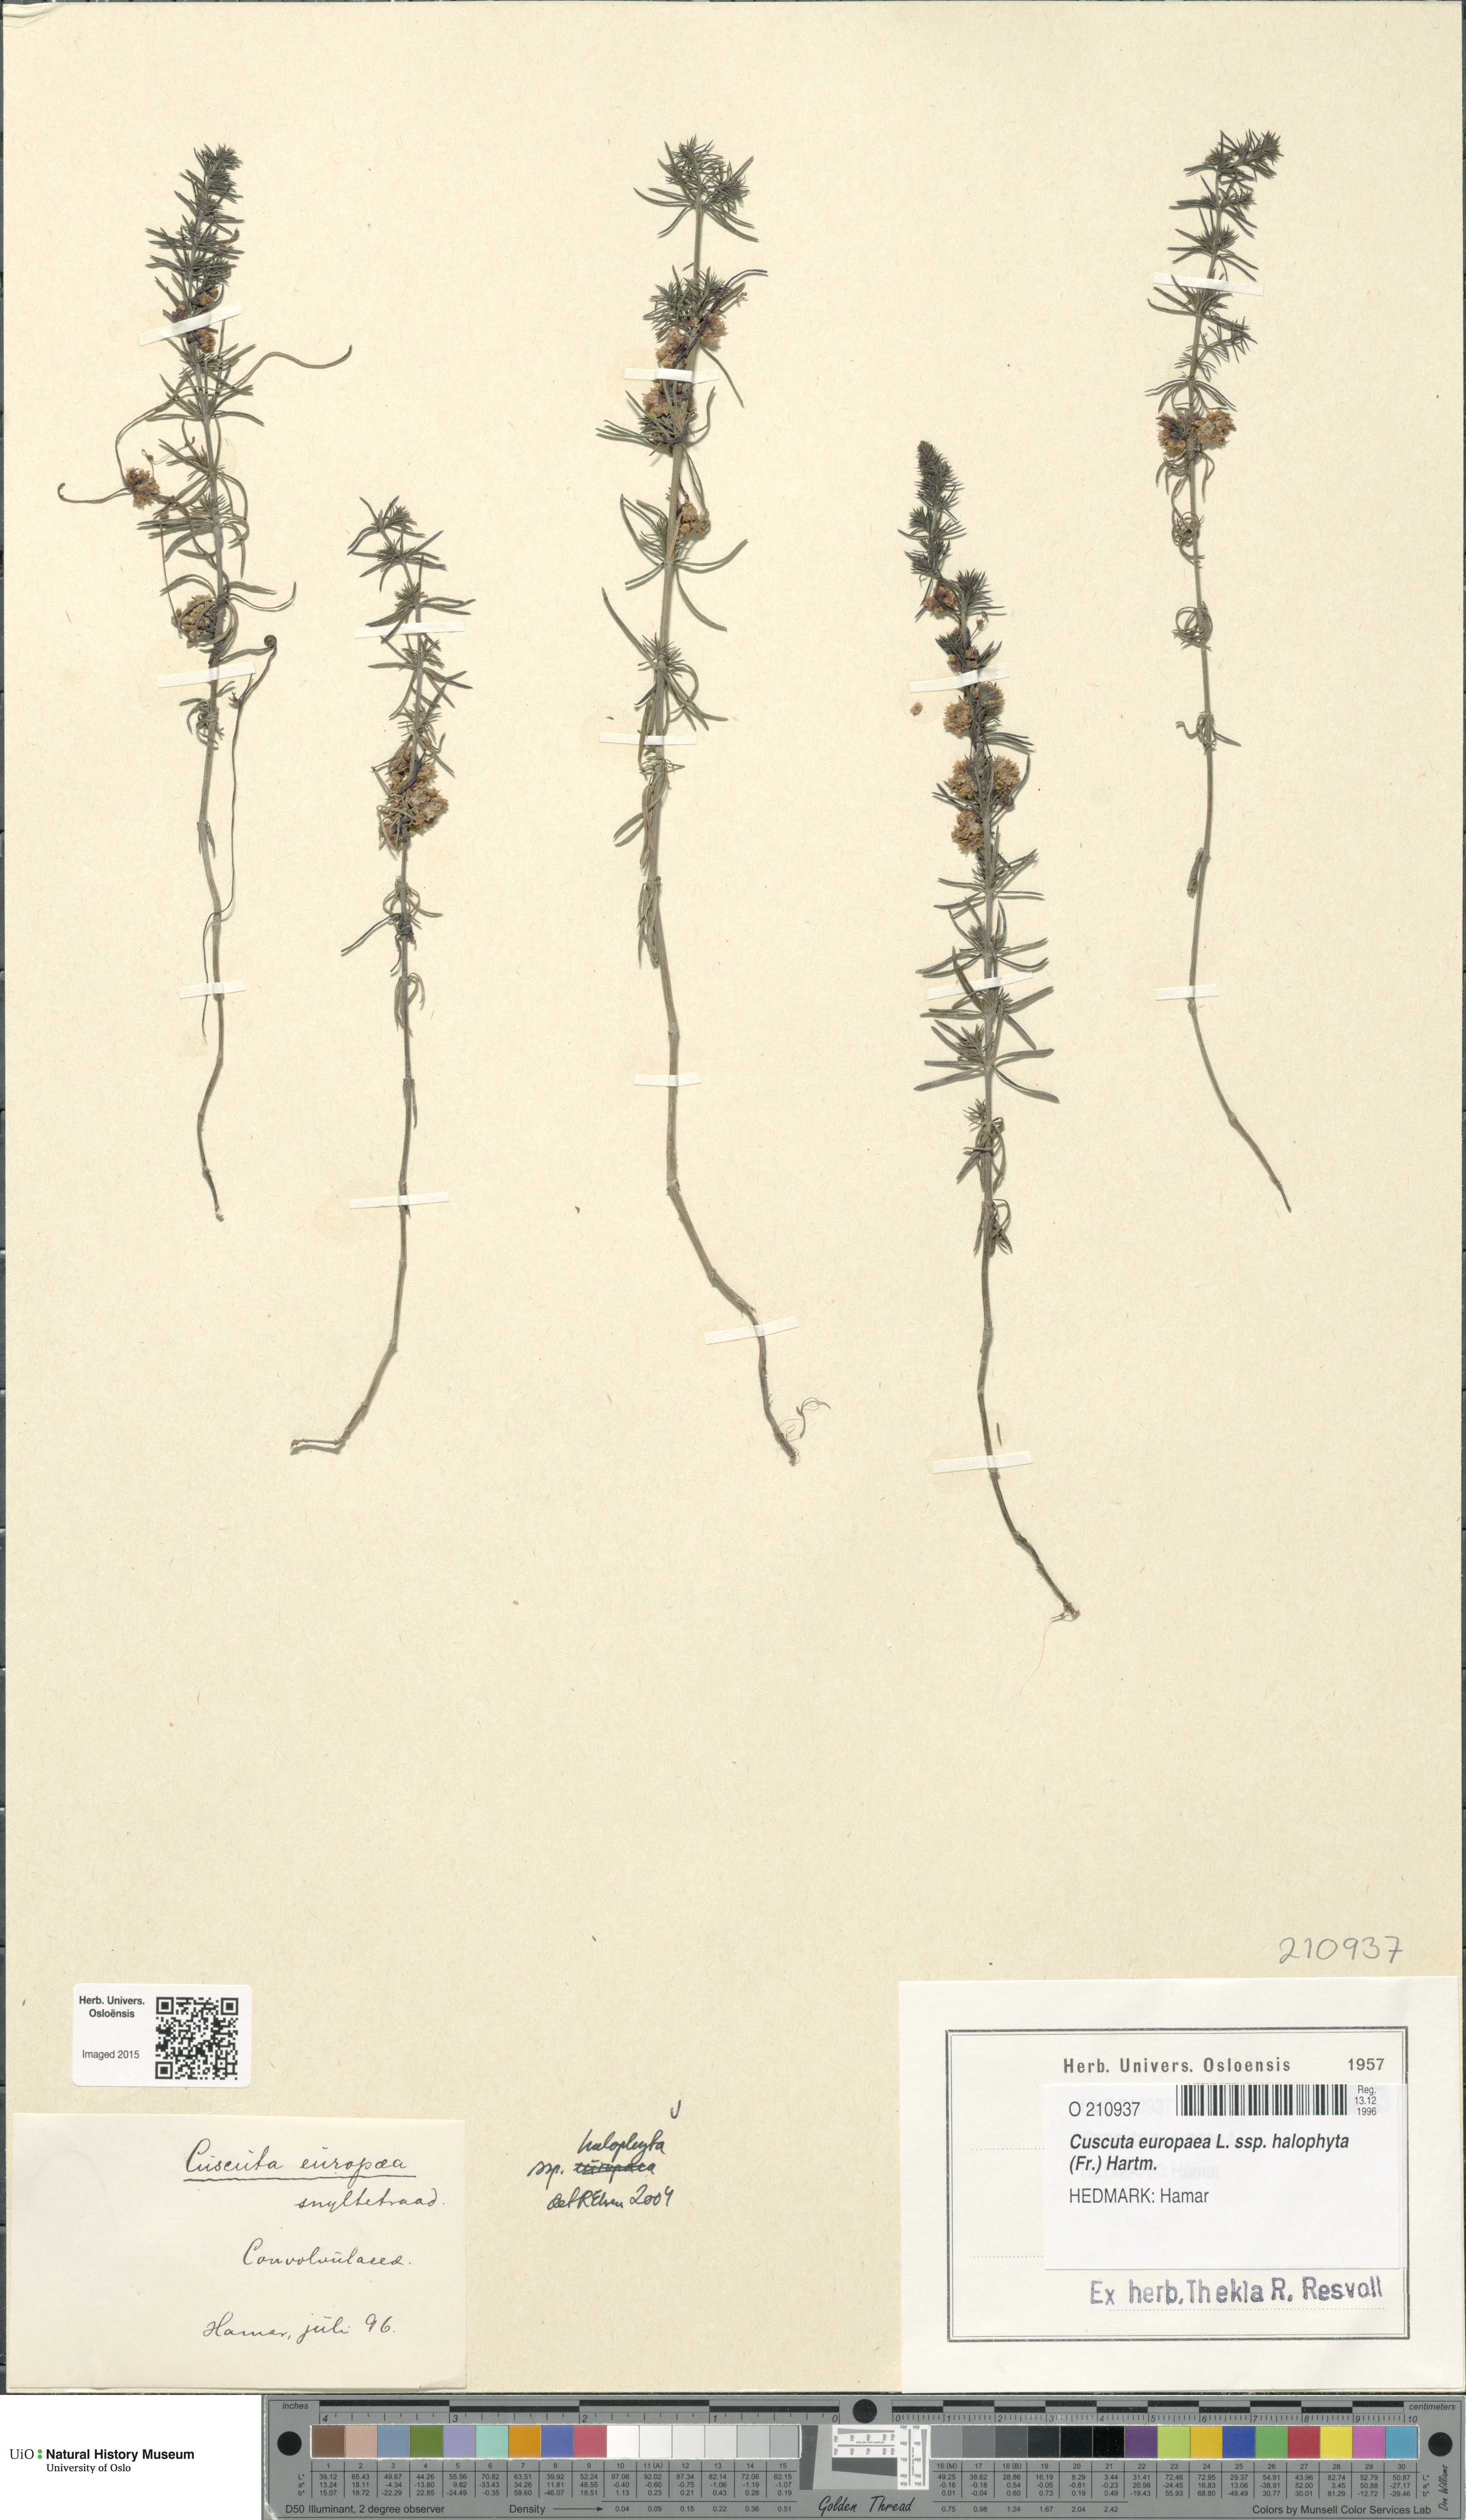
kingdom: Plantae
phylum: Tracheophyta
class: Magnoliopsida
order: Solanales
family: Convolvulaceae
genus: Cuscuta
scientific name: Cuscuta europaea
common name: Greater dodder
